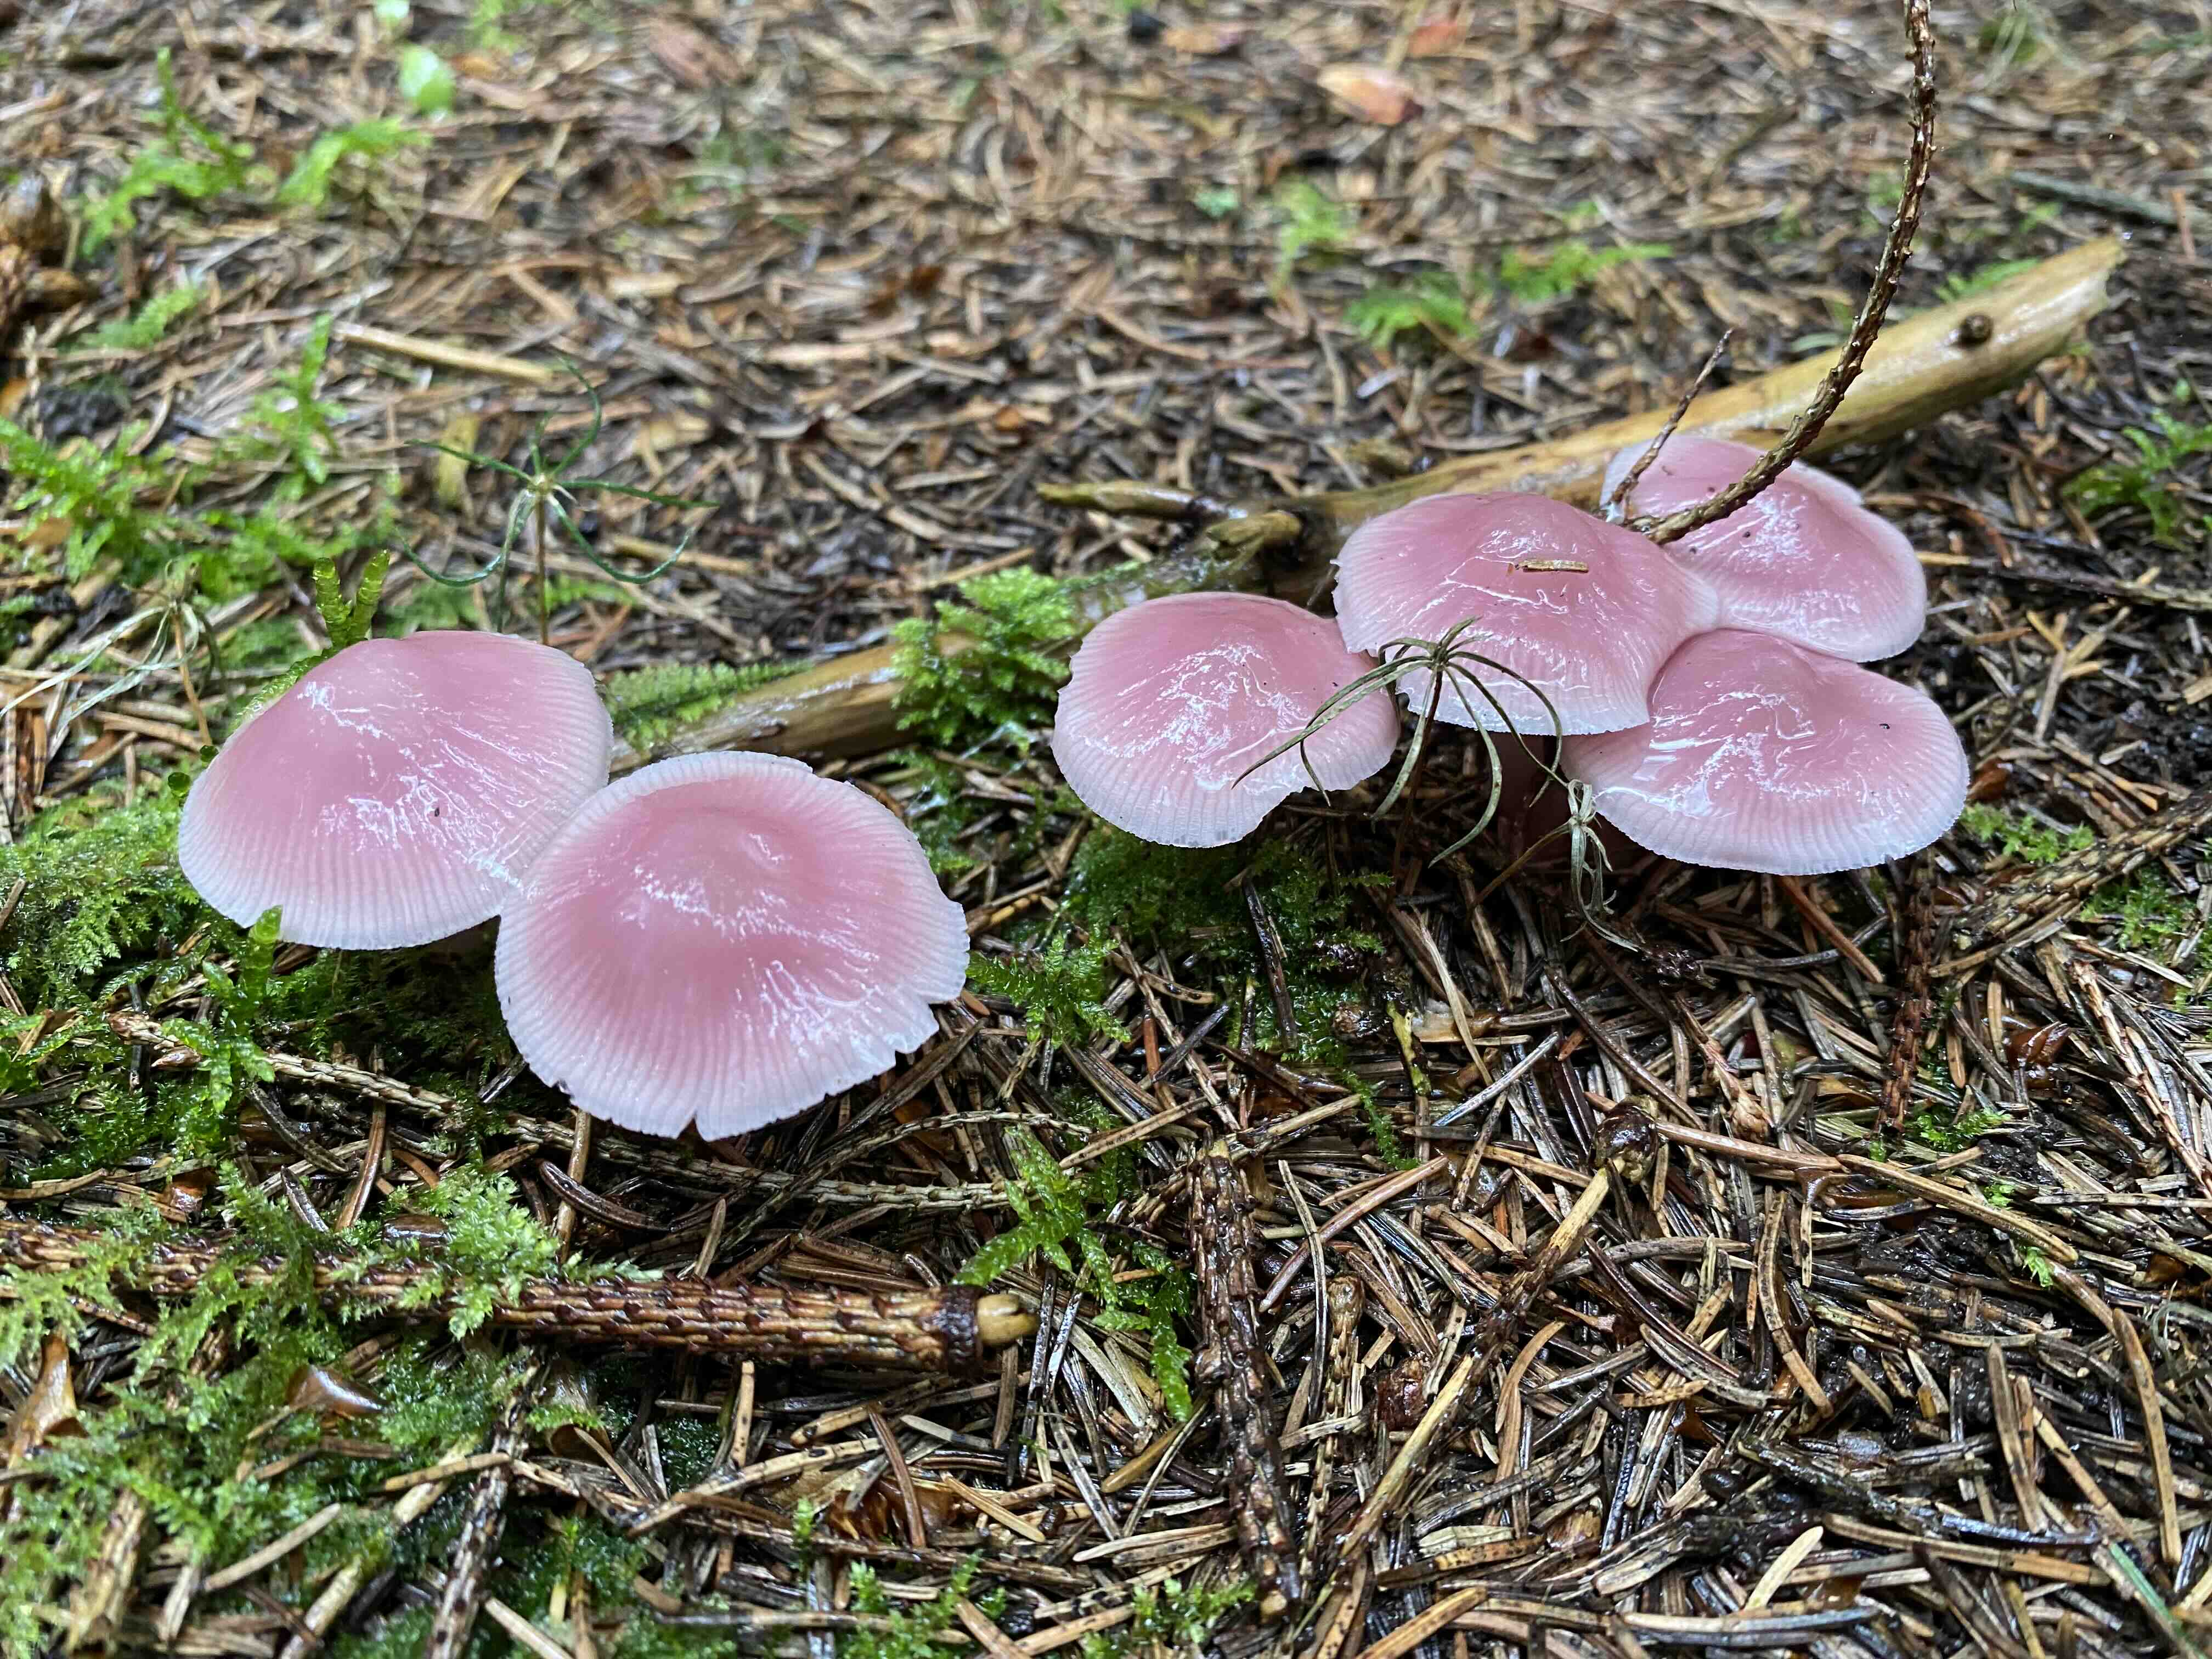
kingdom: Fungi
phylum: Basidiomycota
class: Agaricomycetes
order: Agaricales
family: Mycenaceae
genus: Mycena
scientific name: Mycena rosea
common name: rosa huesvamp
